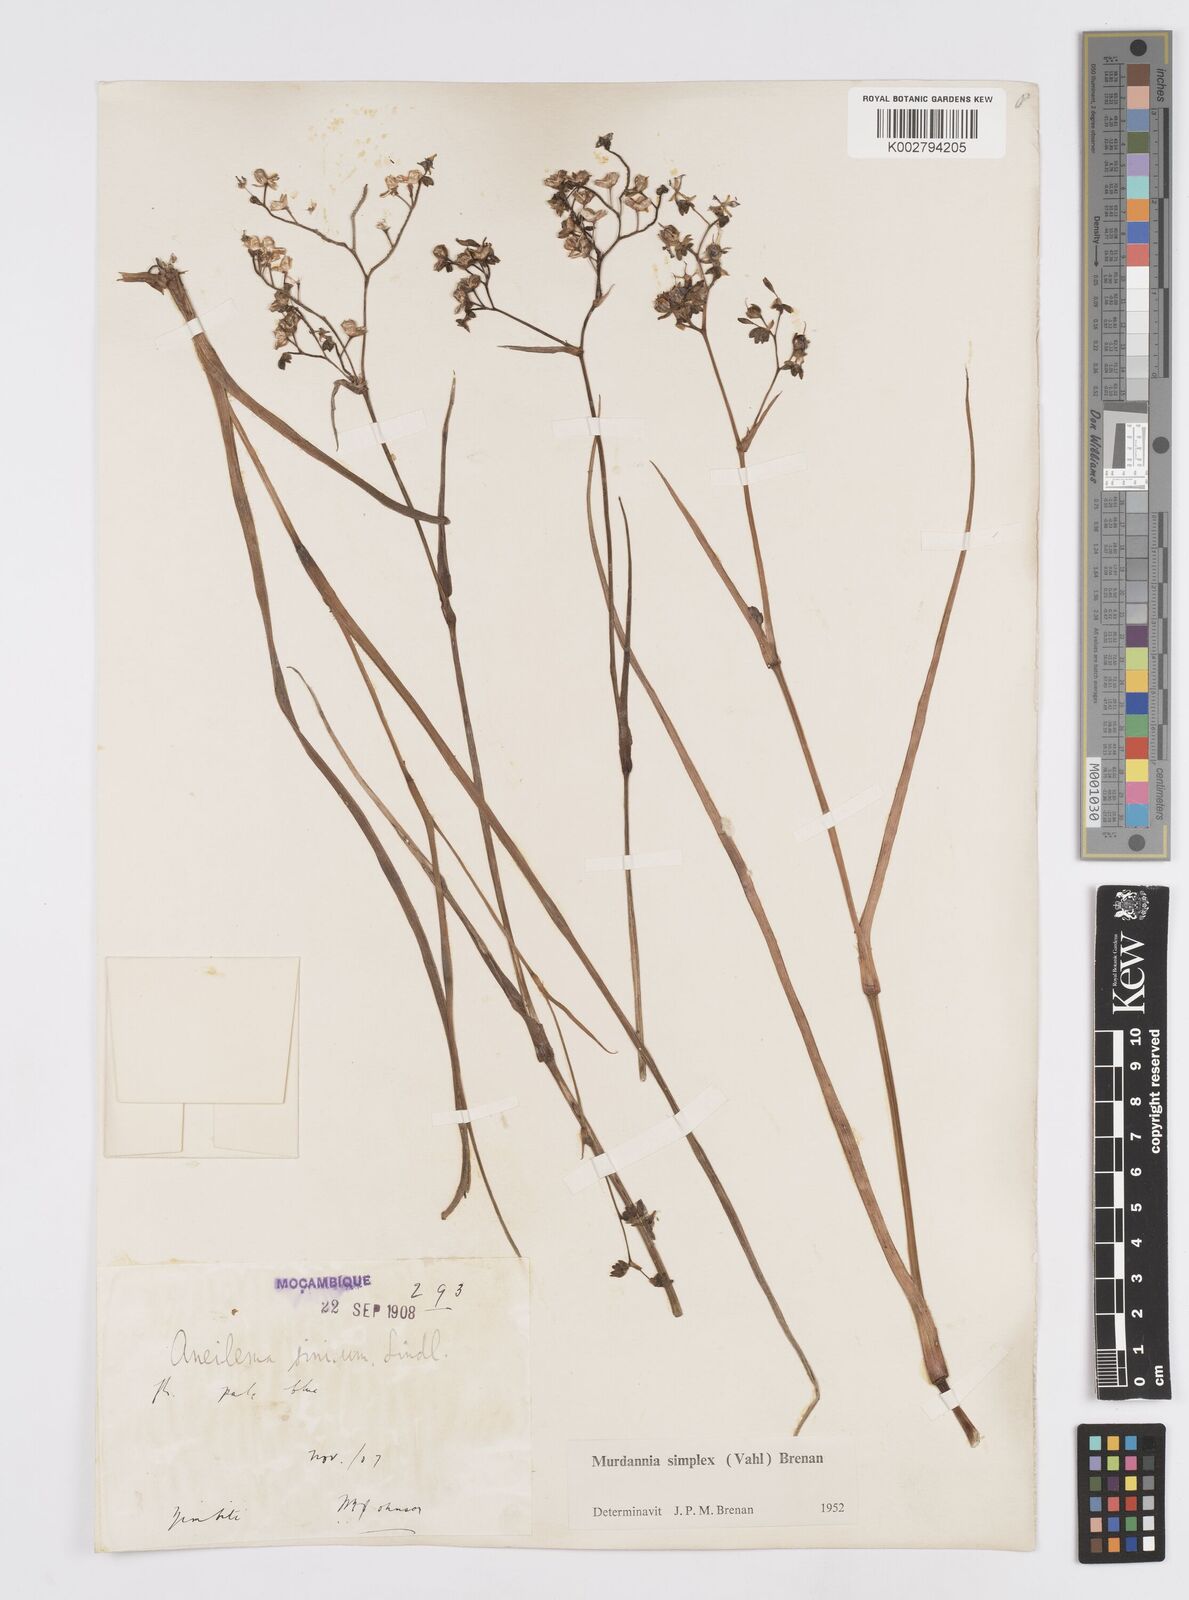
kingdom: Plantae
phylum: Tracheophyta
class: Liliopsida
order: Commelinales
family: Commelinaceae
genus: Murdannia
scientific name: Murdannia simplex
